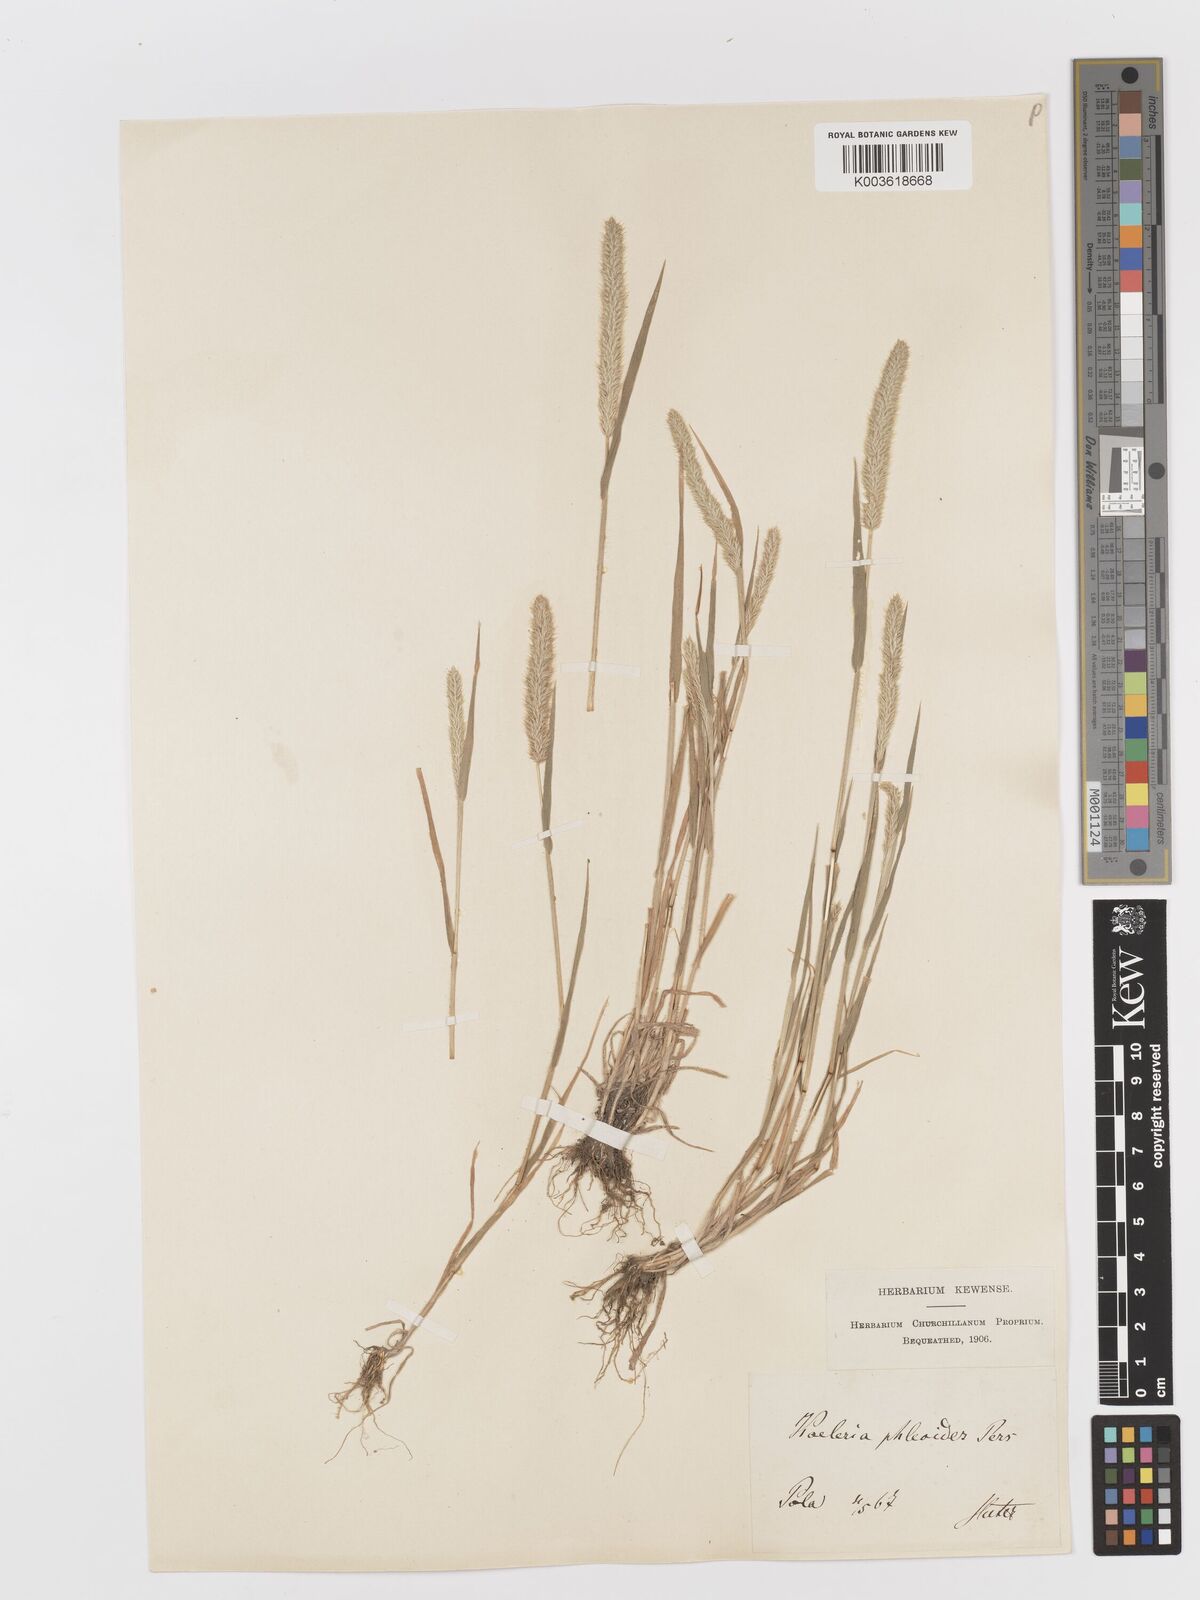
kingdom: Plantae
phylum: Tracheophyta
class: Liliopsida
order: Poales
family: Poaceae
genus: Rostraria
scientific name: Rostraria
